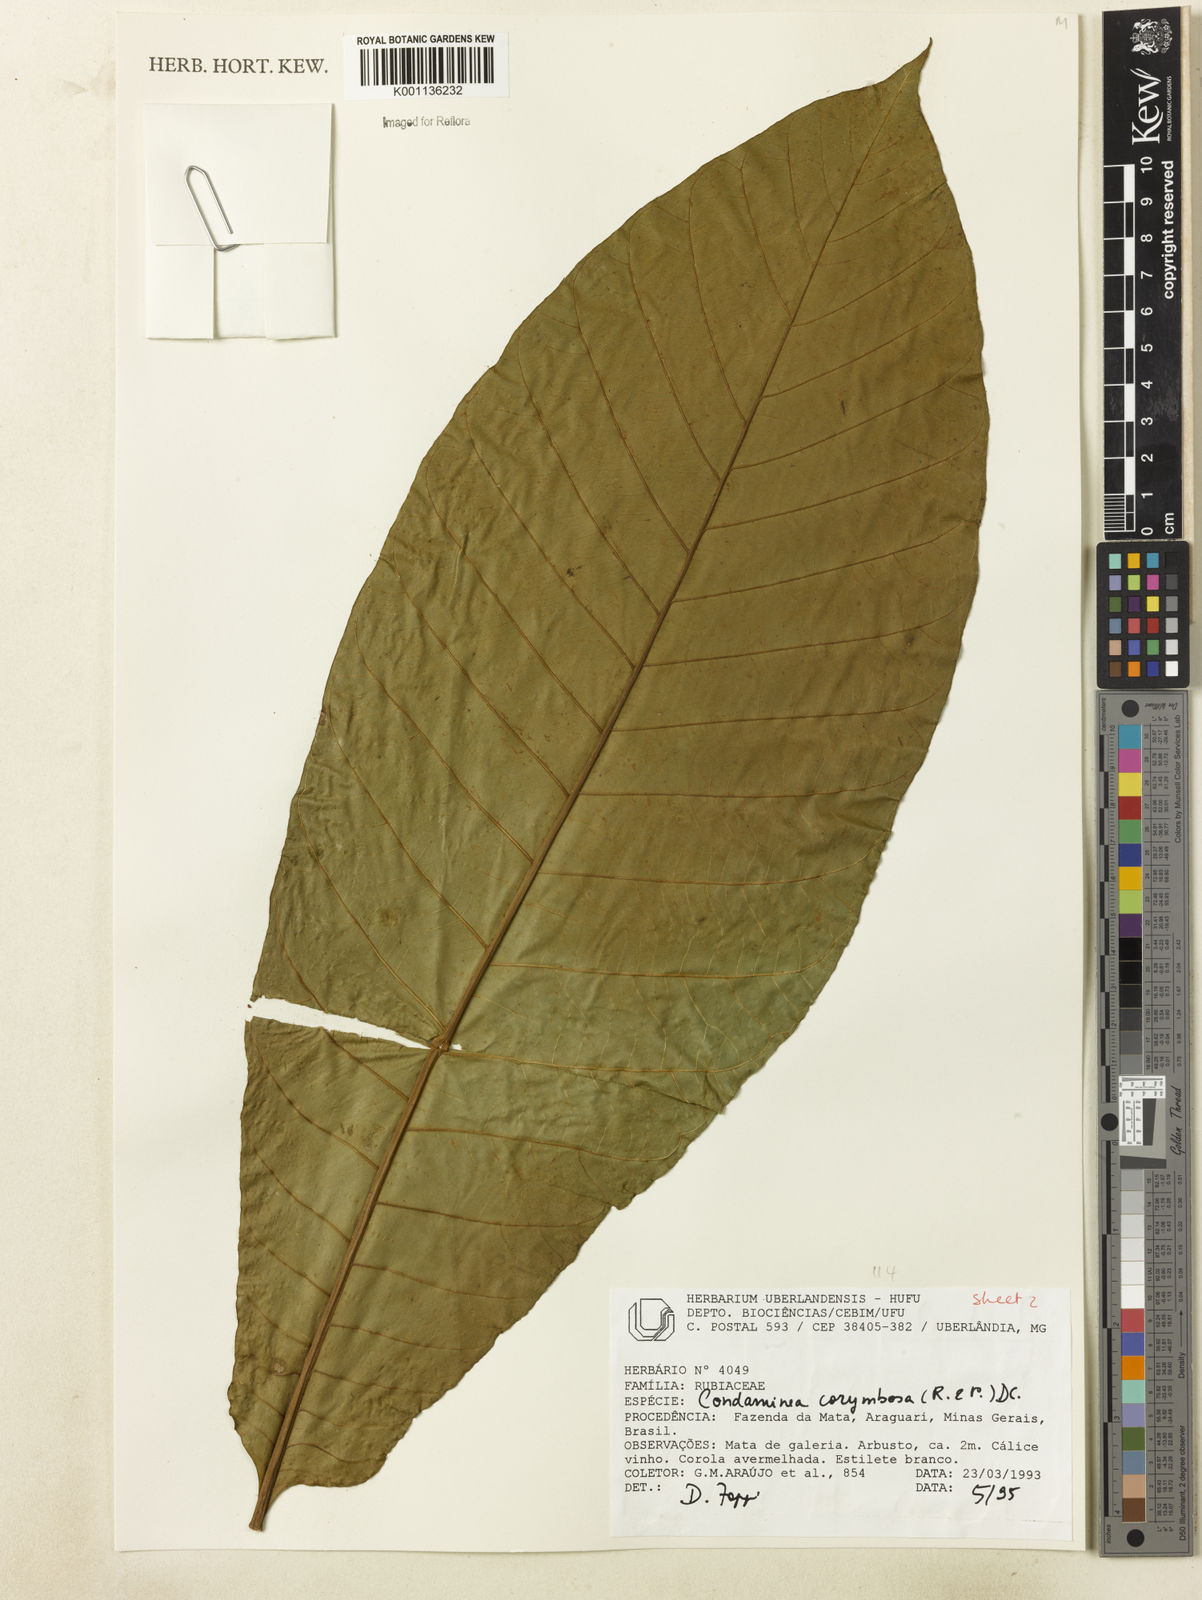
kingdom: Plantae
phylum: Tracheophyta
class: Magnoliopsida
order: Gentianales
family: Rubiaceae
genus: Condaminea
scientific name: Condaminea corymbosa
